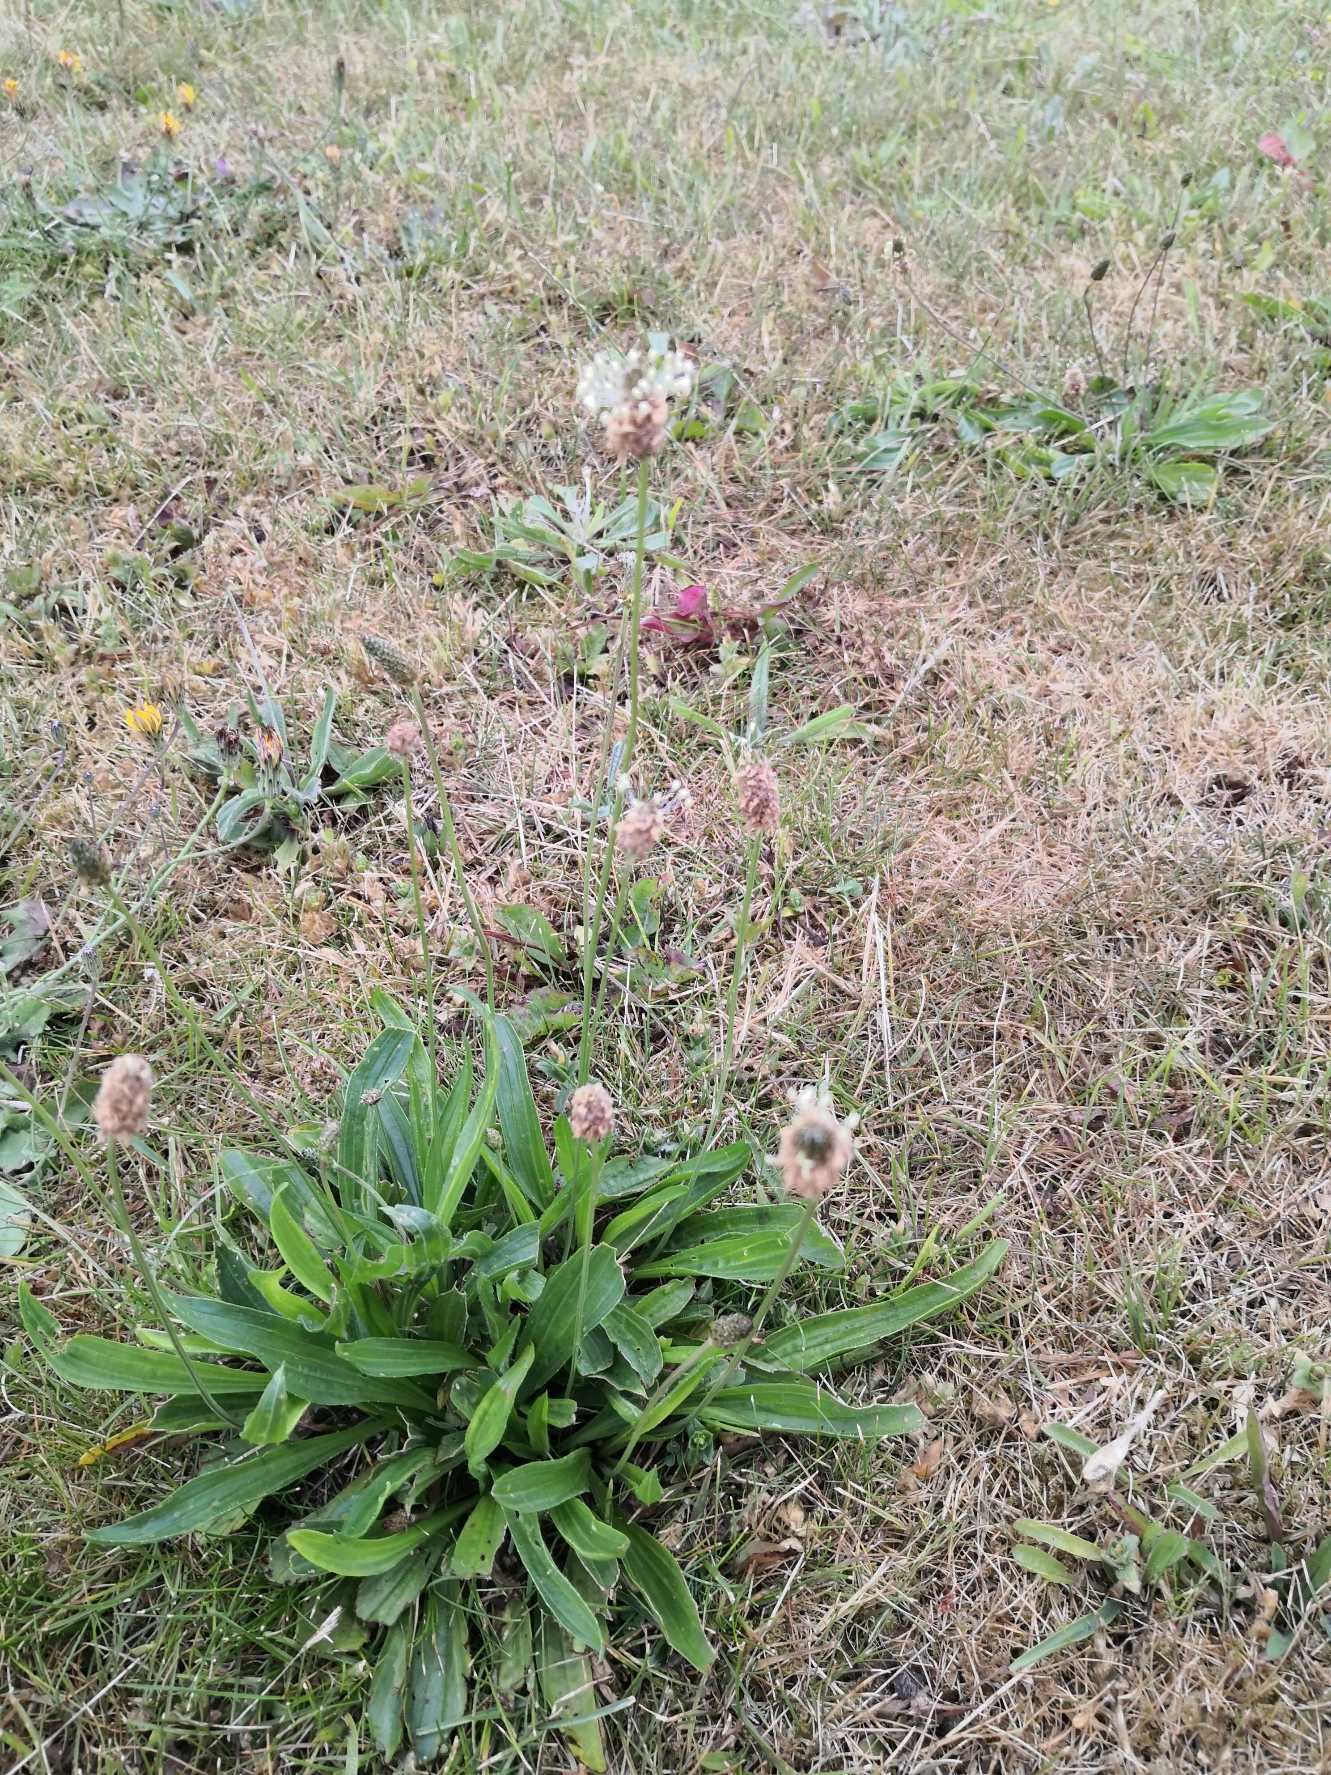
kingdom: Plantae
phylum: Tracheophyta
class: Magnoliopsida
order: Lamiales
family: Plantaginaceae
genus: Plantago
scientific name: Plantago lanceolata
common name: Lancet-vejbred
